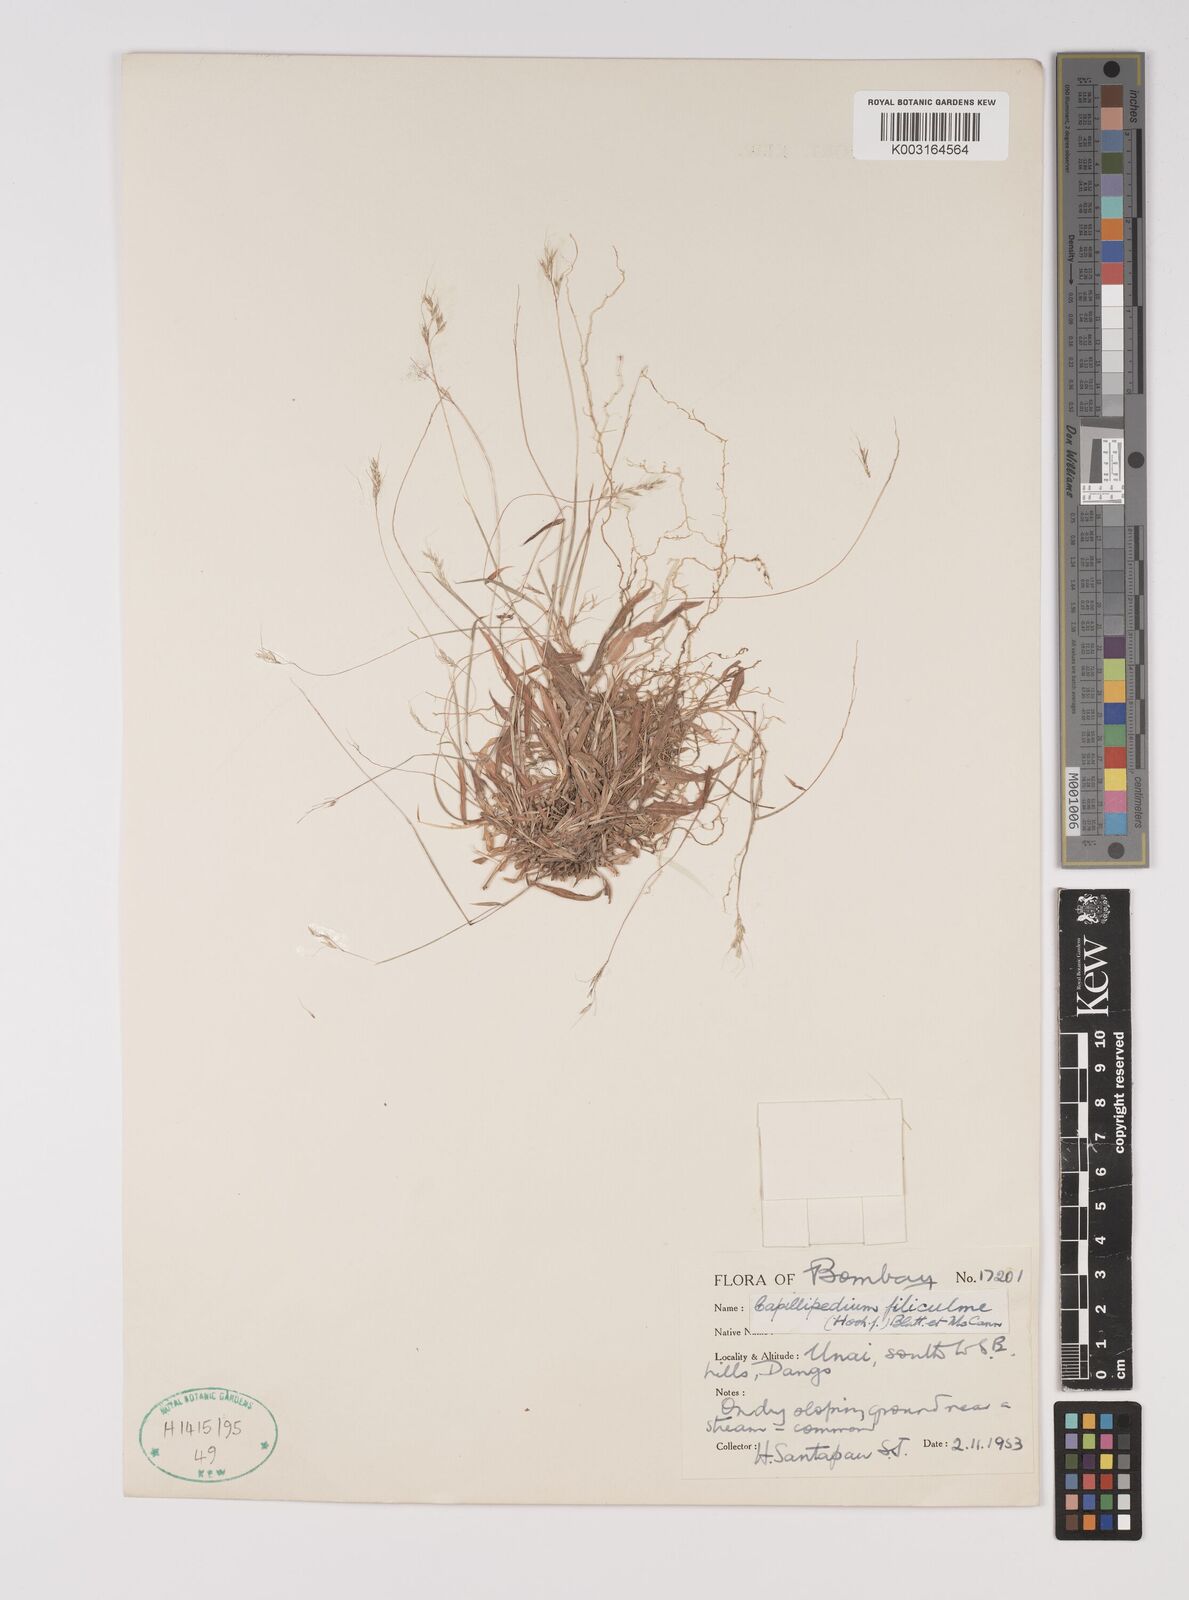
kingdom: Plantae
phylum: Tracheophyta
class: Liliopsida
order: Poales
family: Poaceae
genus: Capillipedium
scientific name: Capillipedium filiculme
